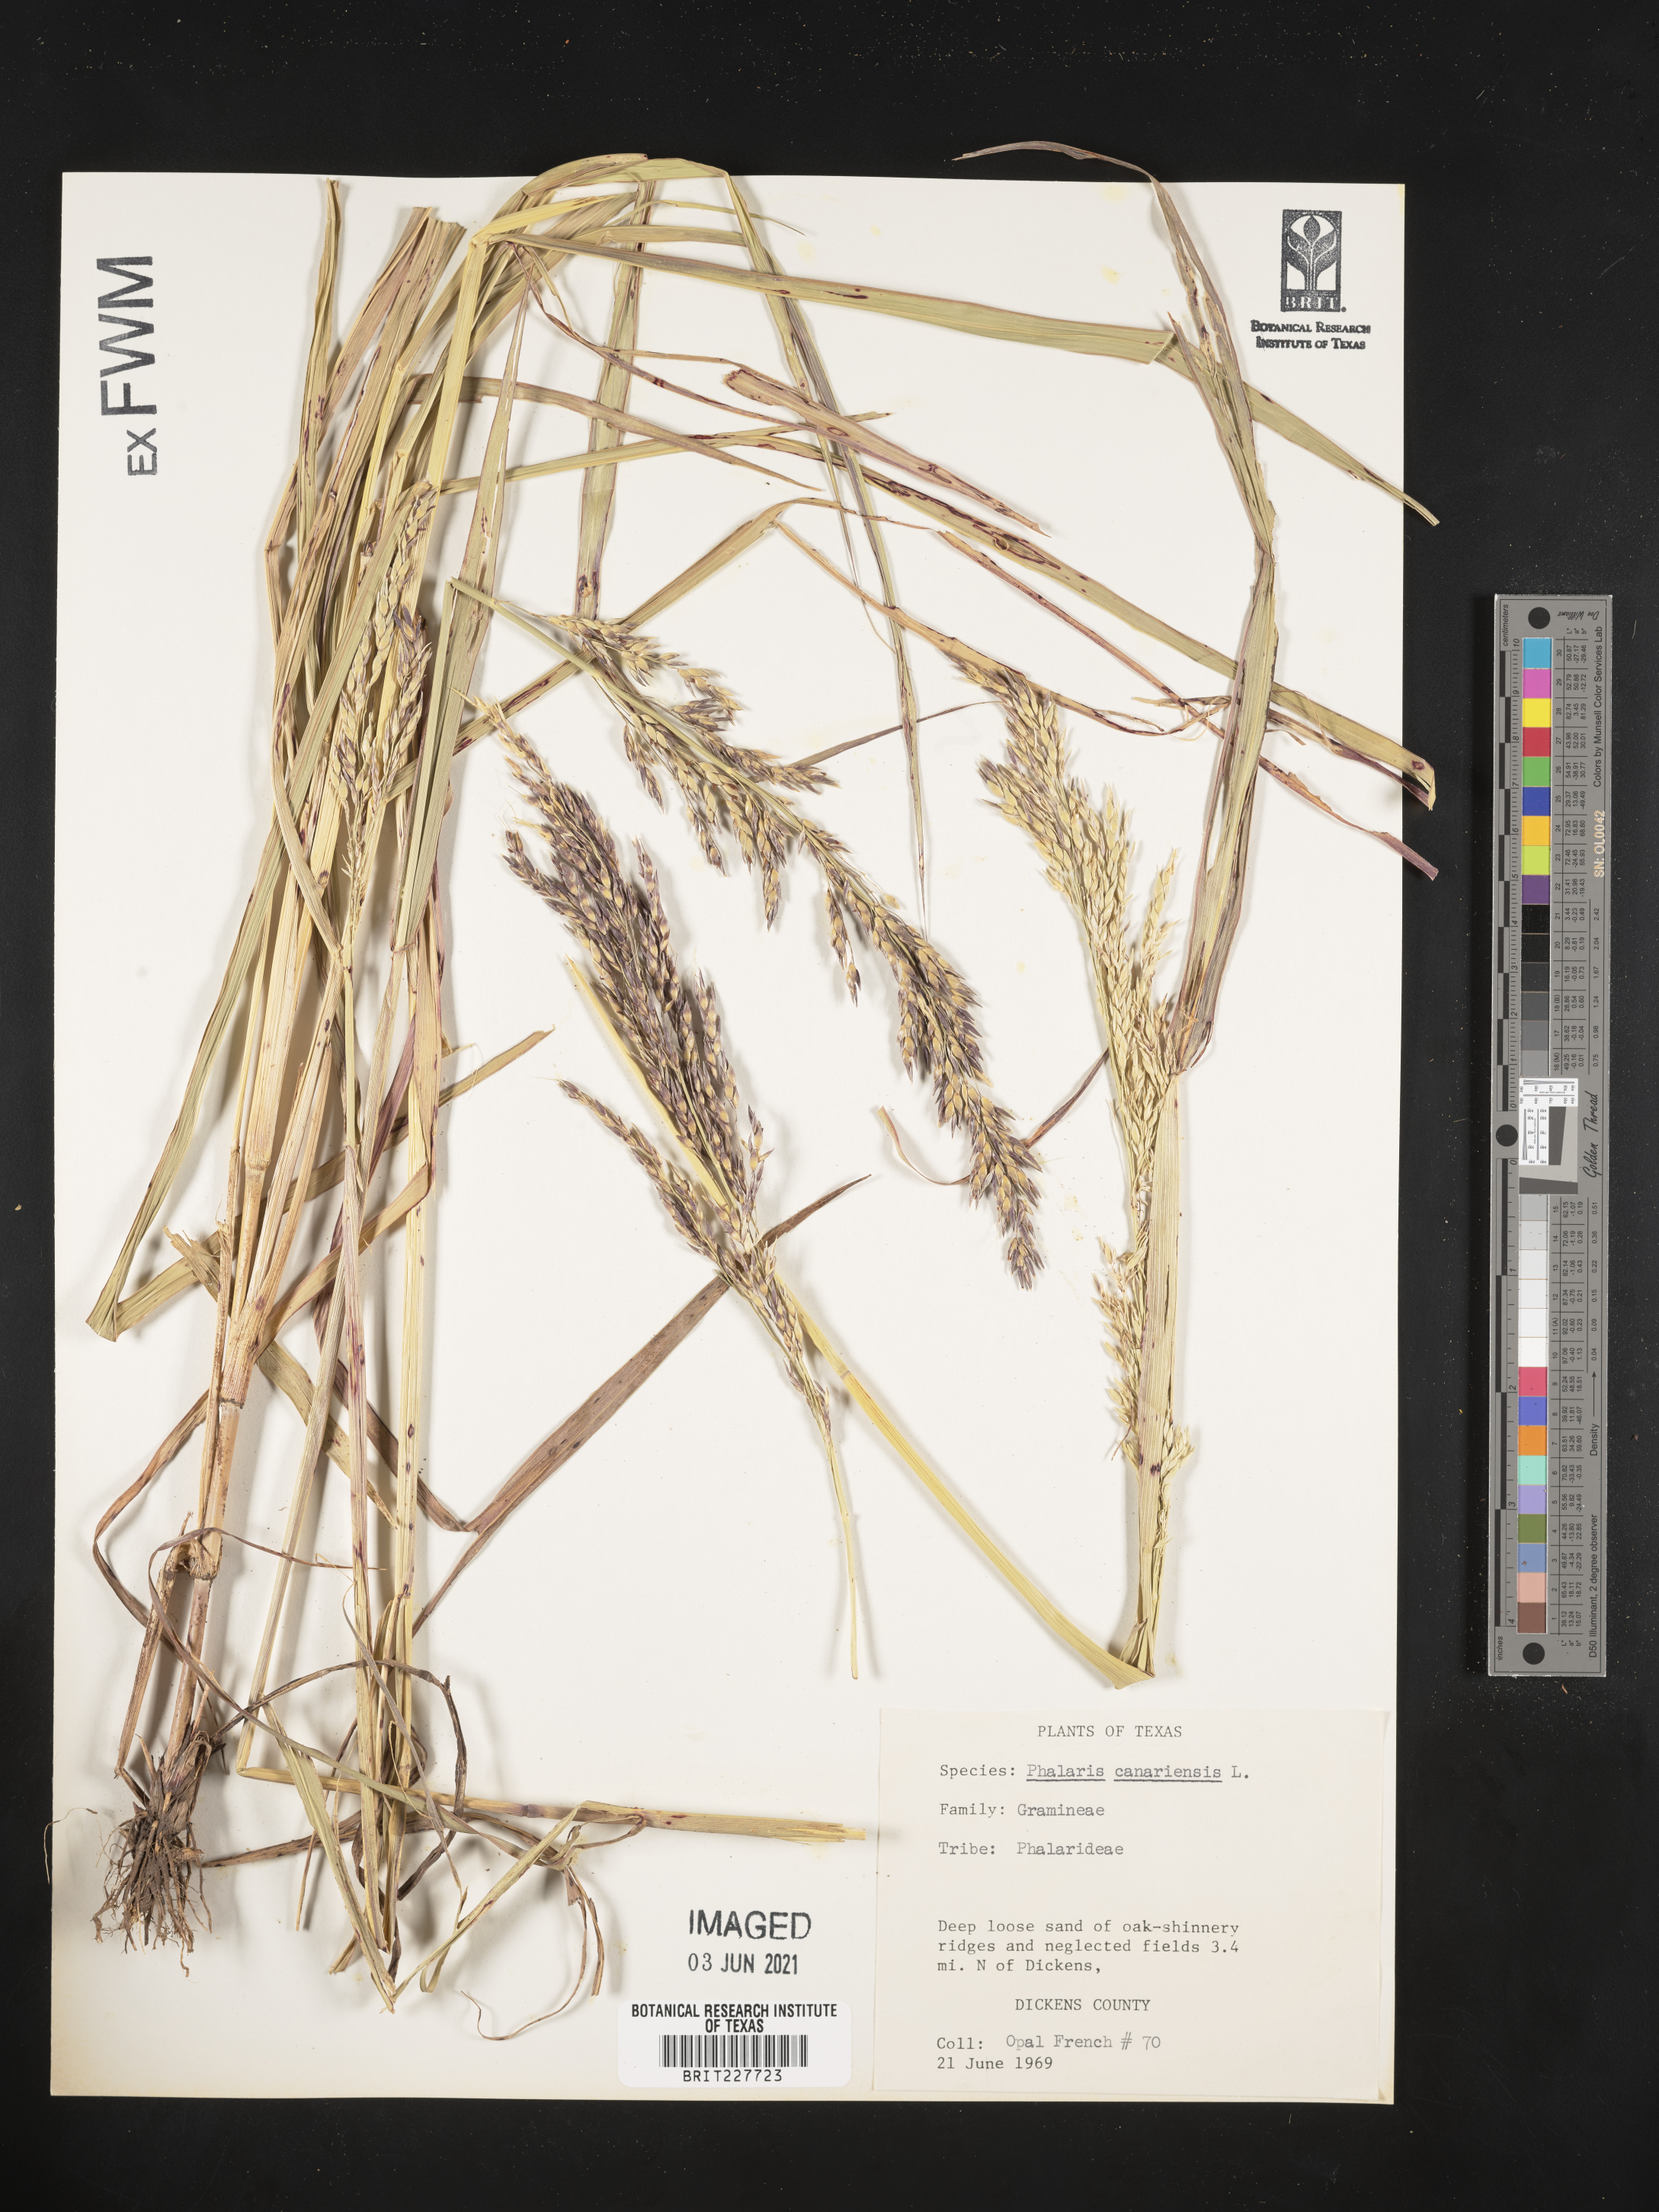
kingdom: Plantae
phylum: Tracheophyta
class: Liliopsida
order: Poales
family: Poaceae
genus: Phalaris
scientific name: Phalaris canariensis
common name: Annual canarygrass
